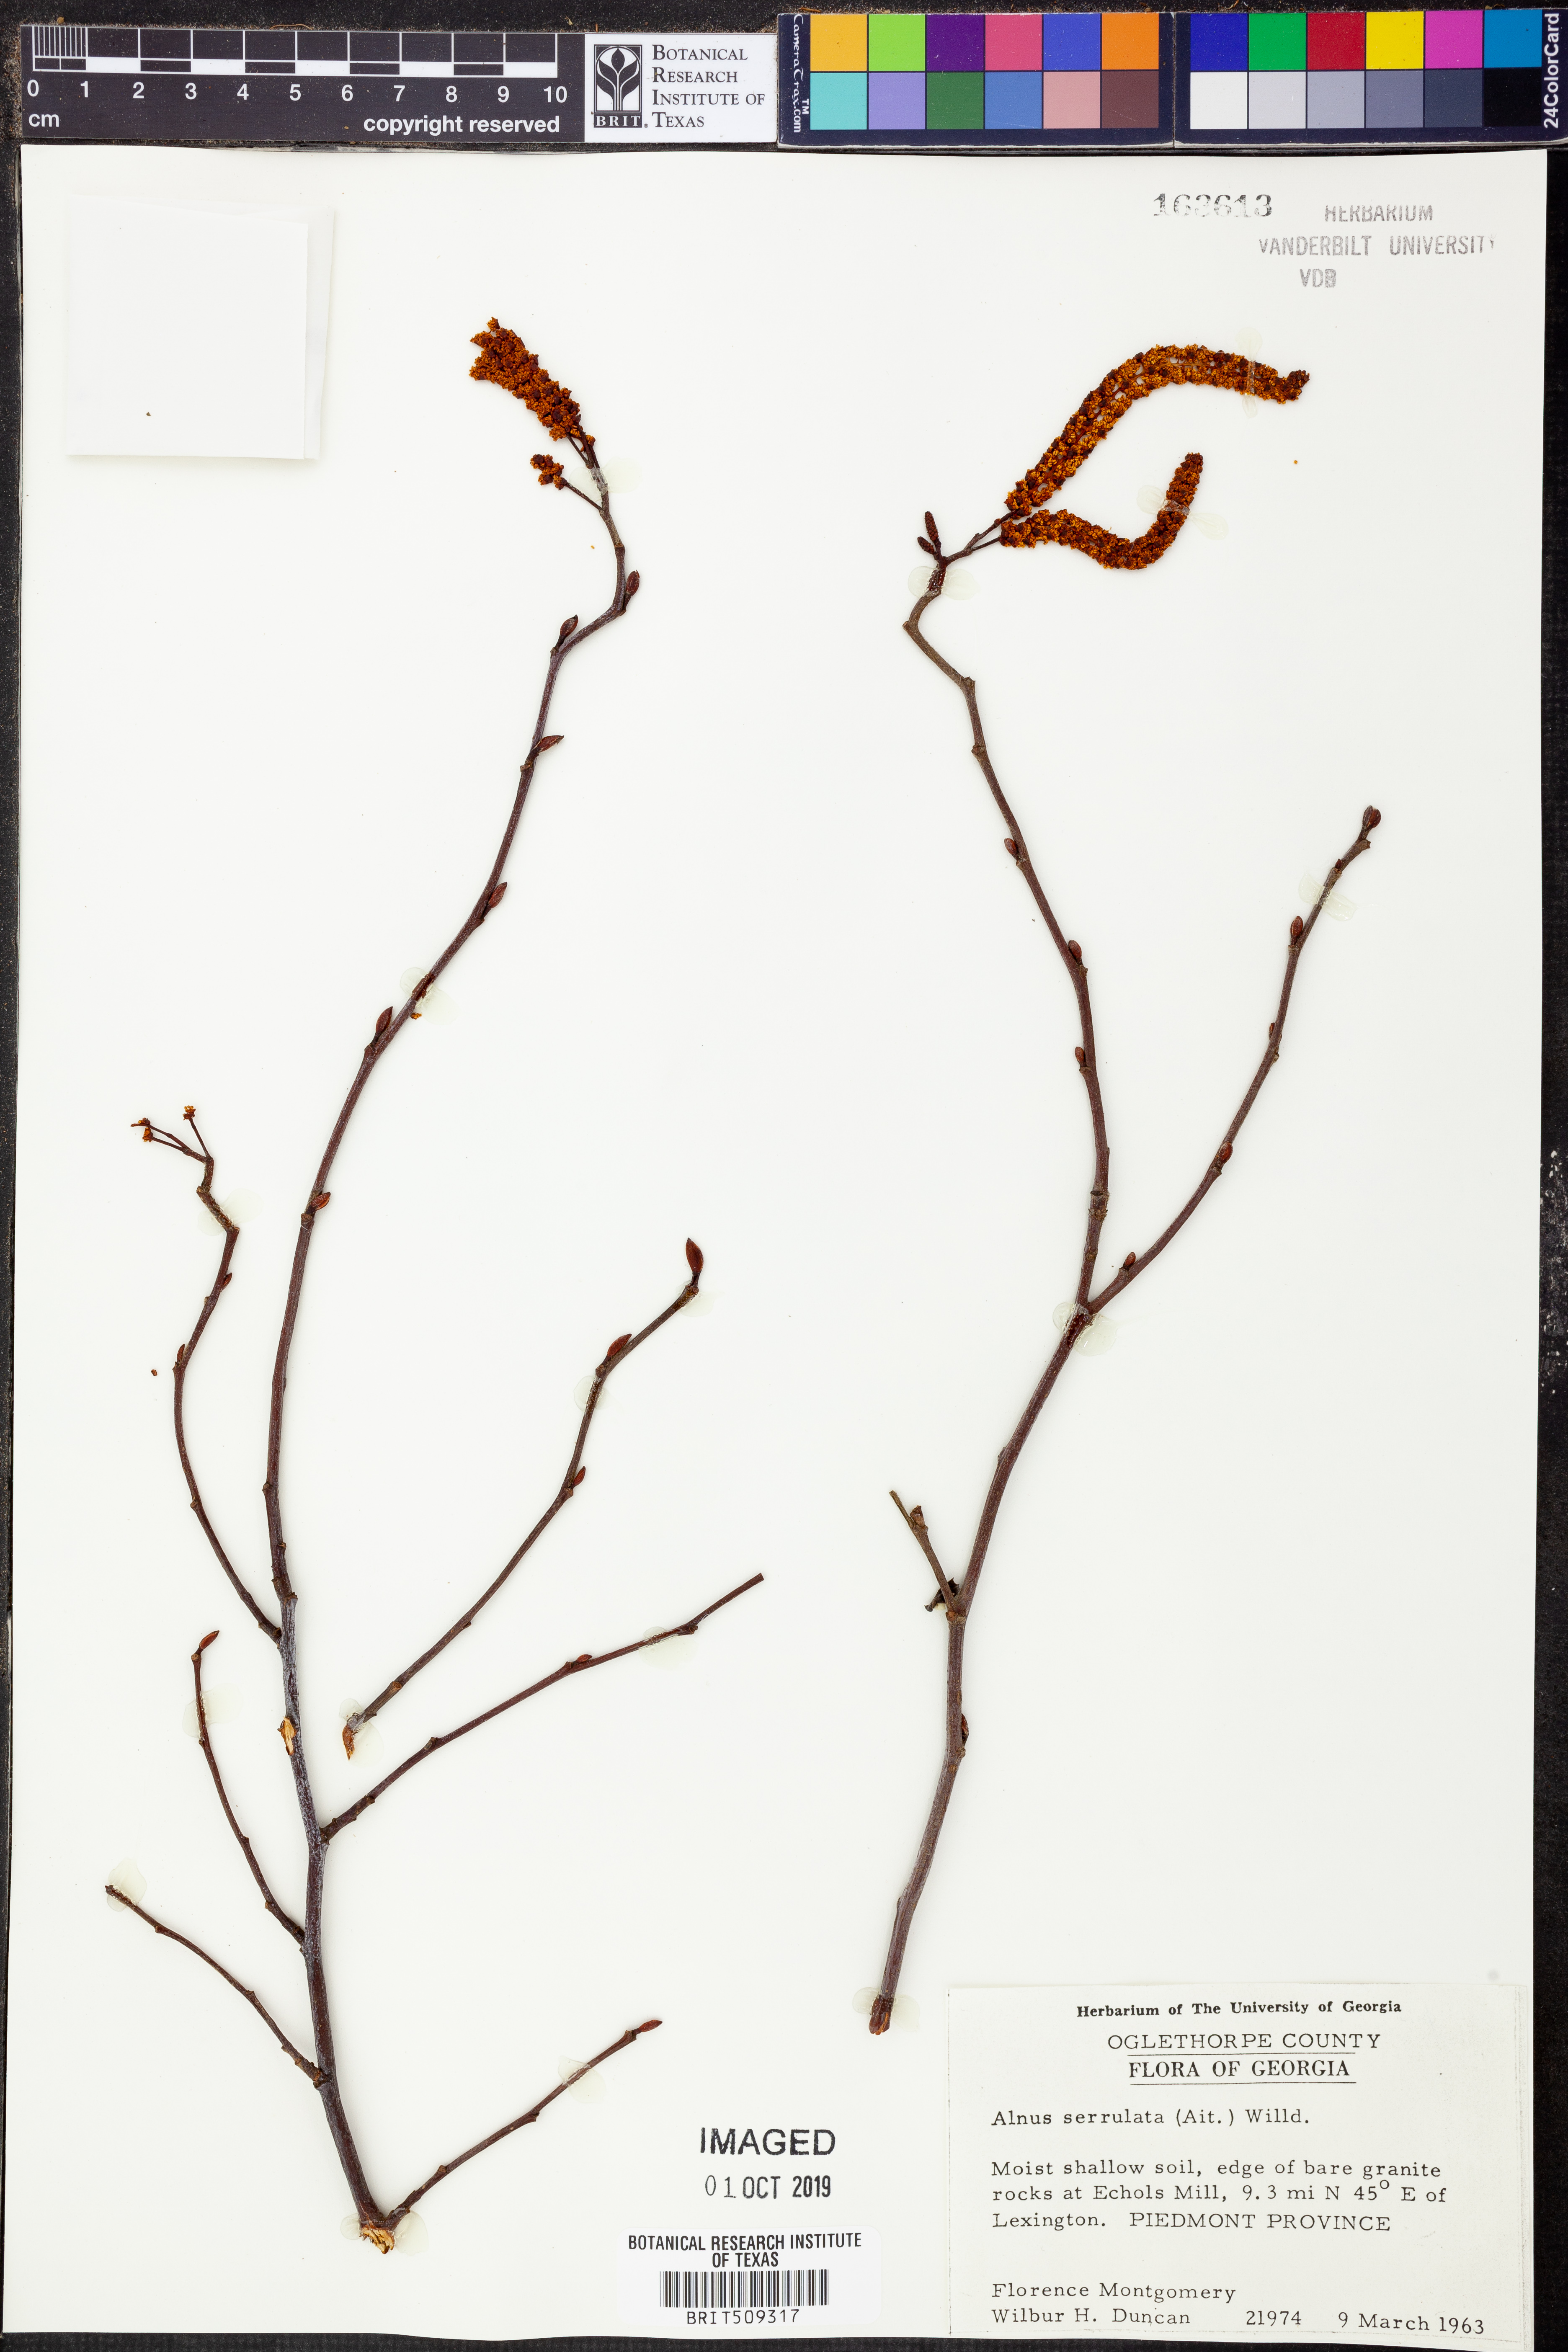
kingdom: Plantae
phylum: Tracheophyta
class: Magnoliopsida
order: Fagales
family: Betulaceae
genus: Alnus
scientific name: Alnus serrulata
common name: Hazel alder
